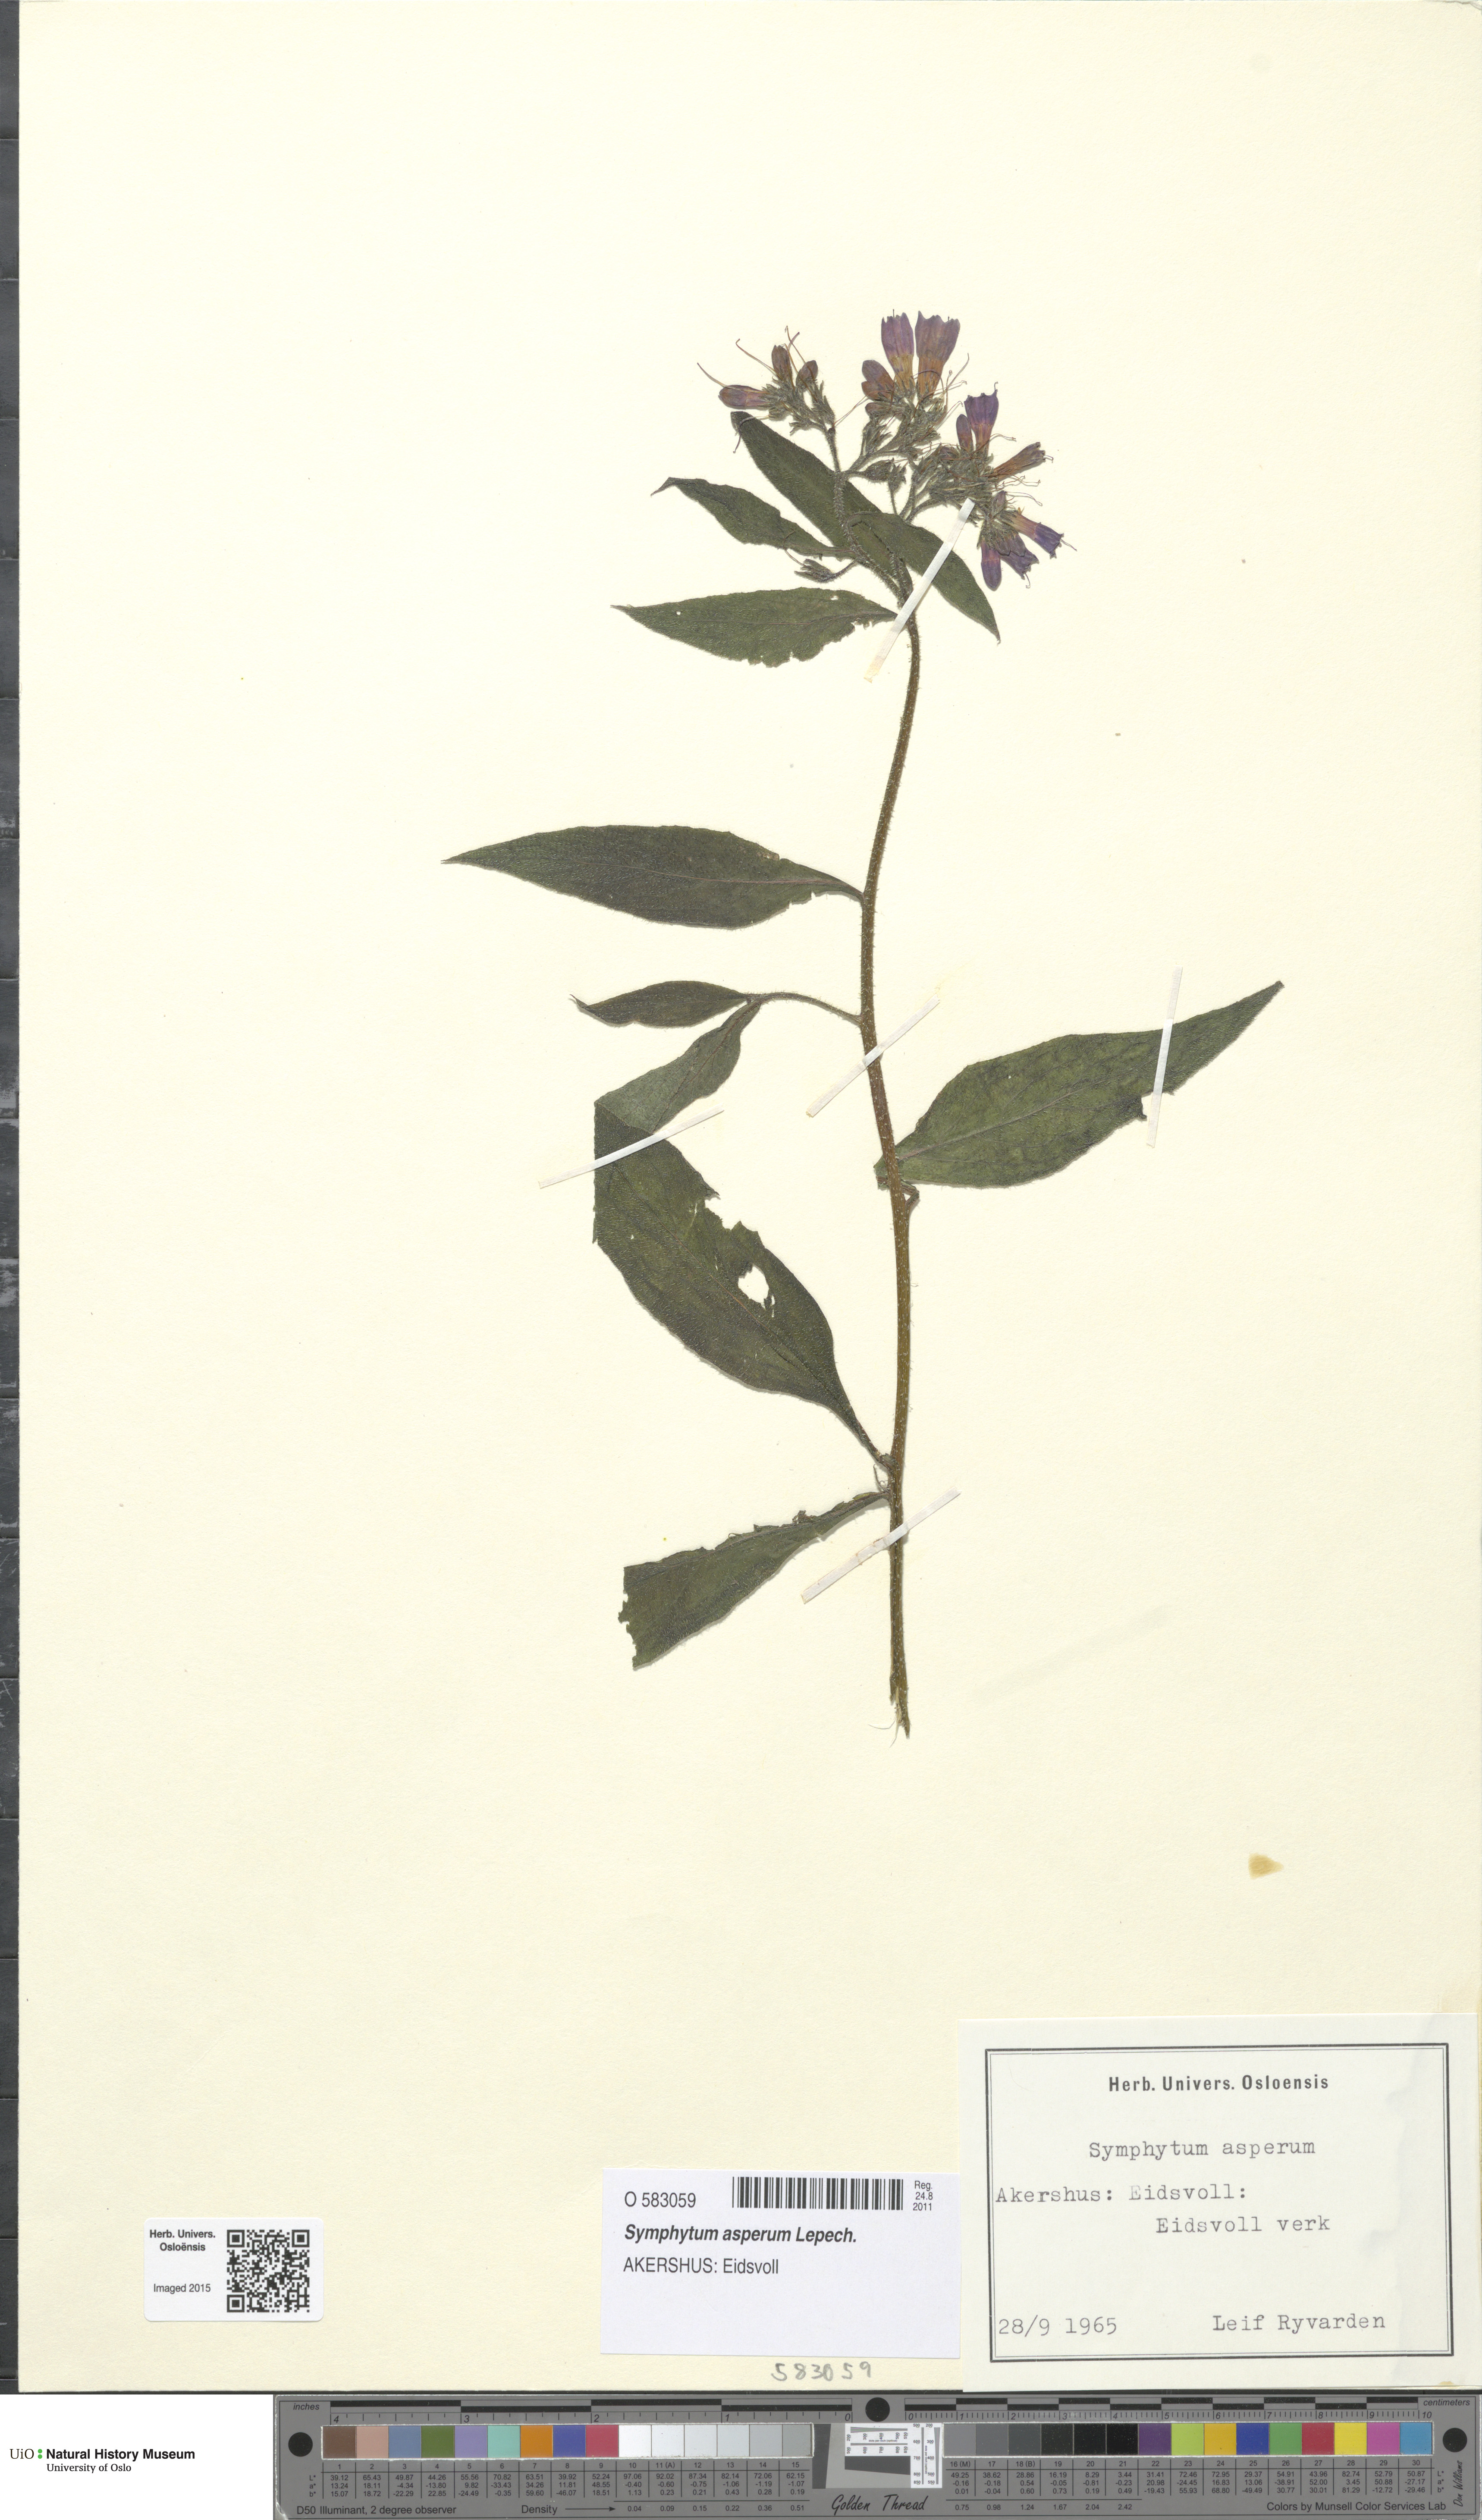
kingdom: Plantae
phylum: Tracheophyta
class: Magnoliopsida
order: Boraginales
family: Boraginaceae
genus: Symphytum
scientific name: Symphytum asperum
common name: Prickly comfrey
